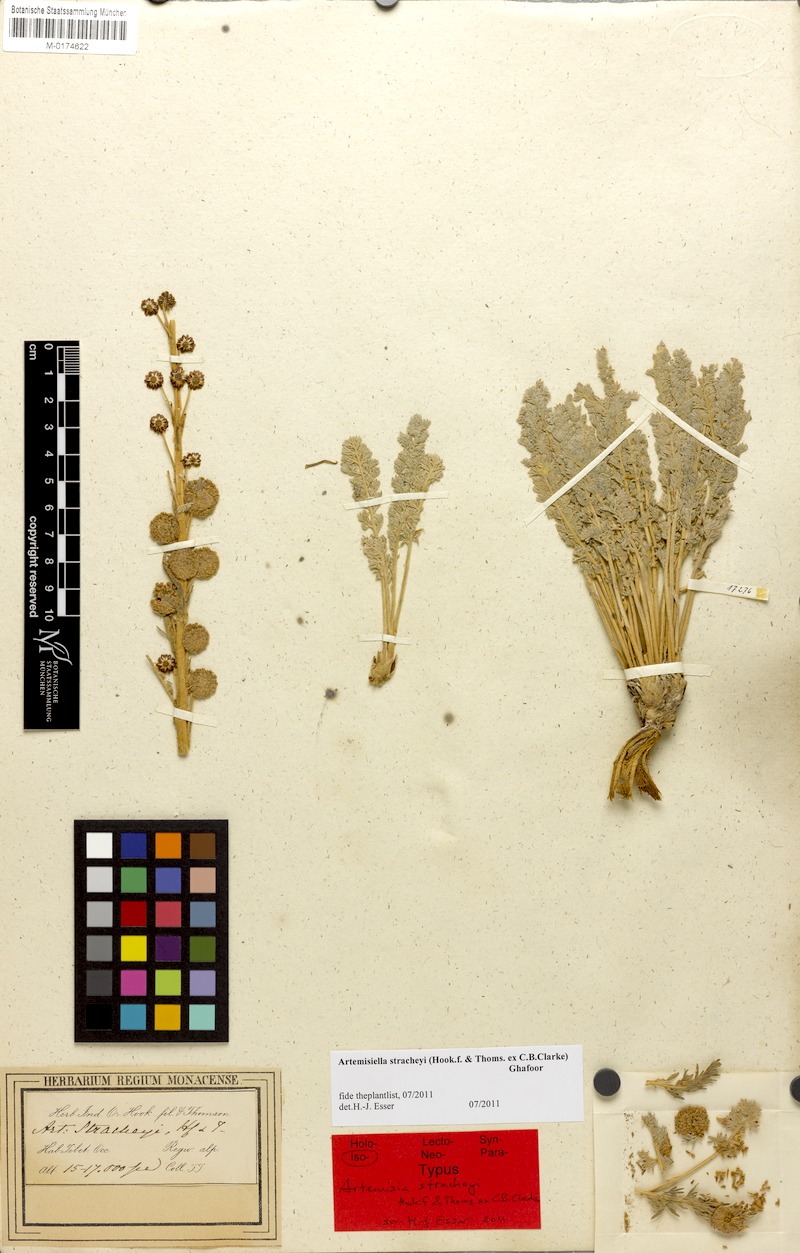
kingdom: Plantae
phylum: Tracheophyta
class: Magnoliopsida
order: Asterales
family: Asteraceae
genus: Artemisiella
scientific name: Artemisiella stracheyi
